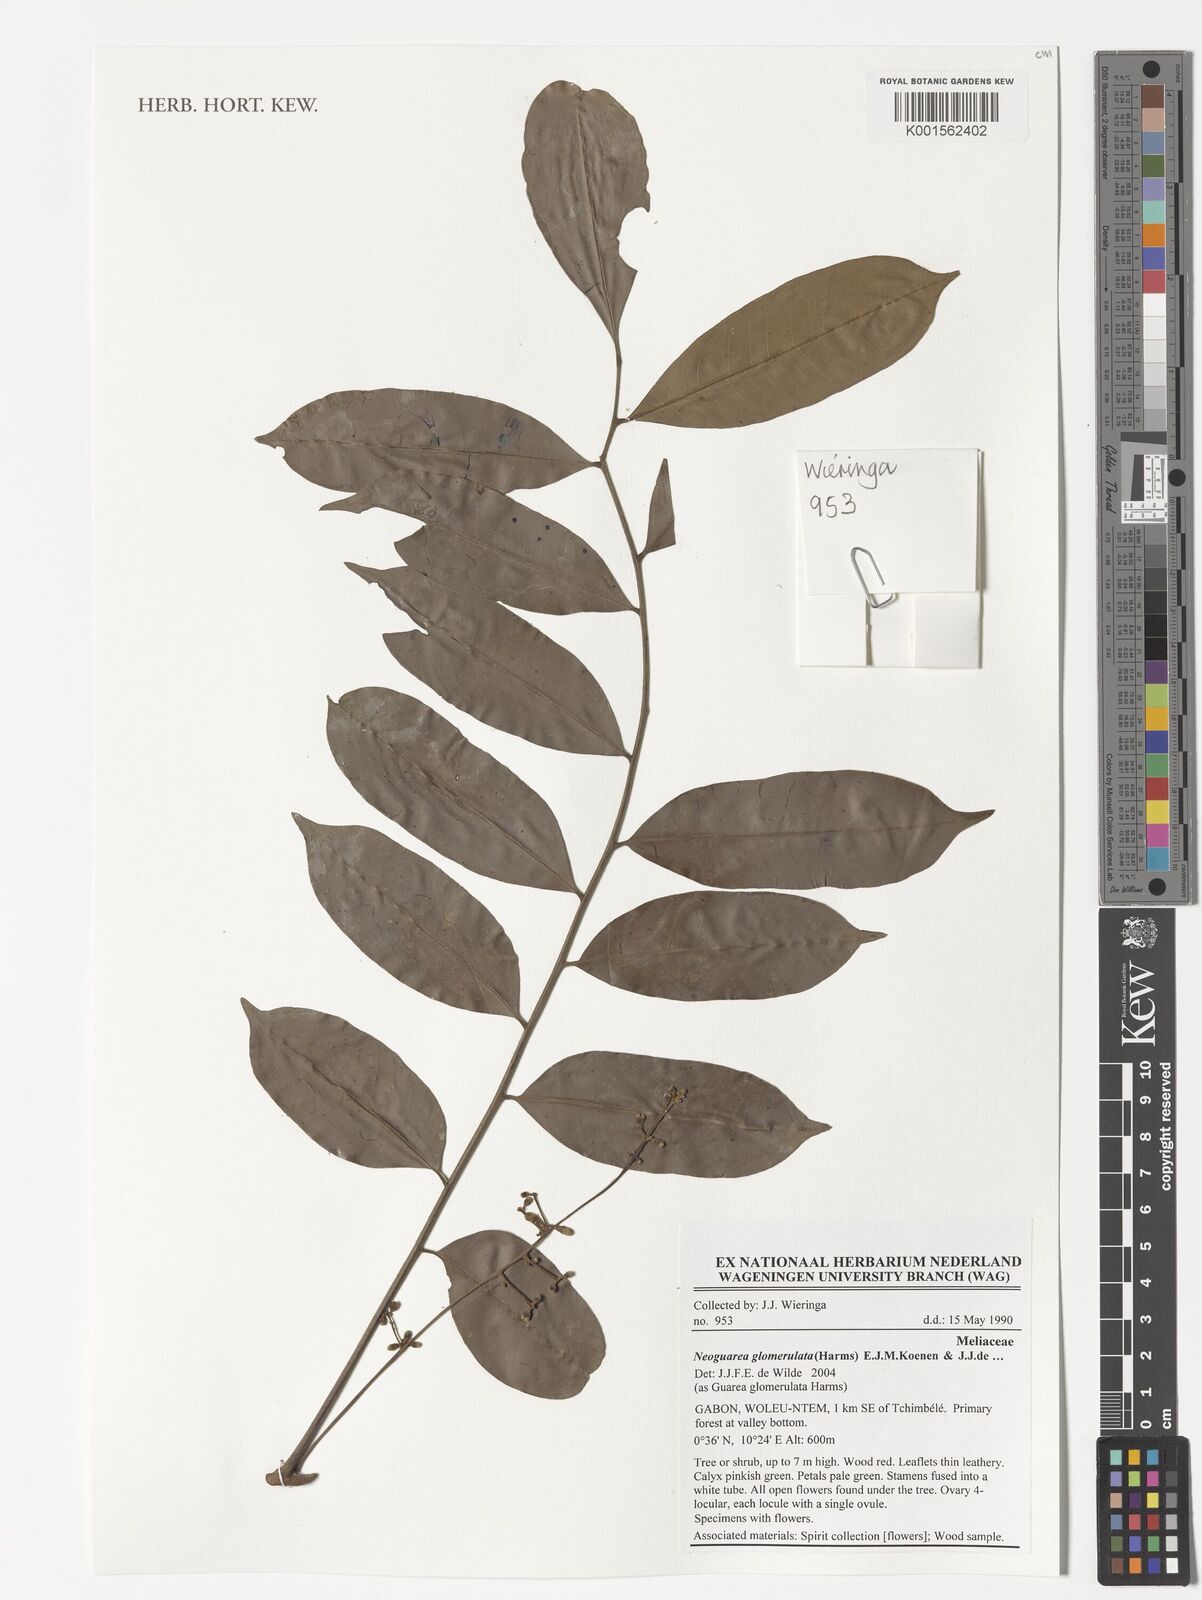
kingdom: Plantae
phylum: Tracheophyta
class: Magnoliopsida
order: Sapindales
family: Meliaceae
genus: Neoguarea
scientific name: Neoguarea glomerulata
